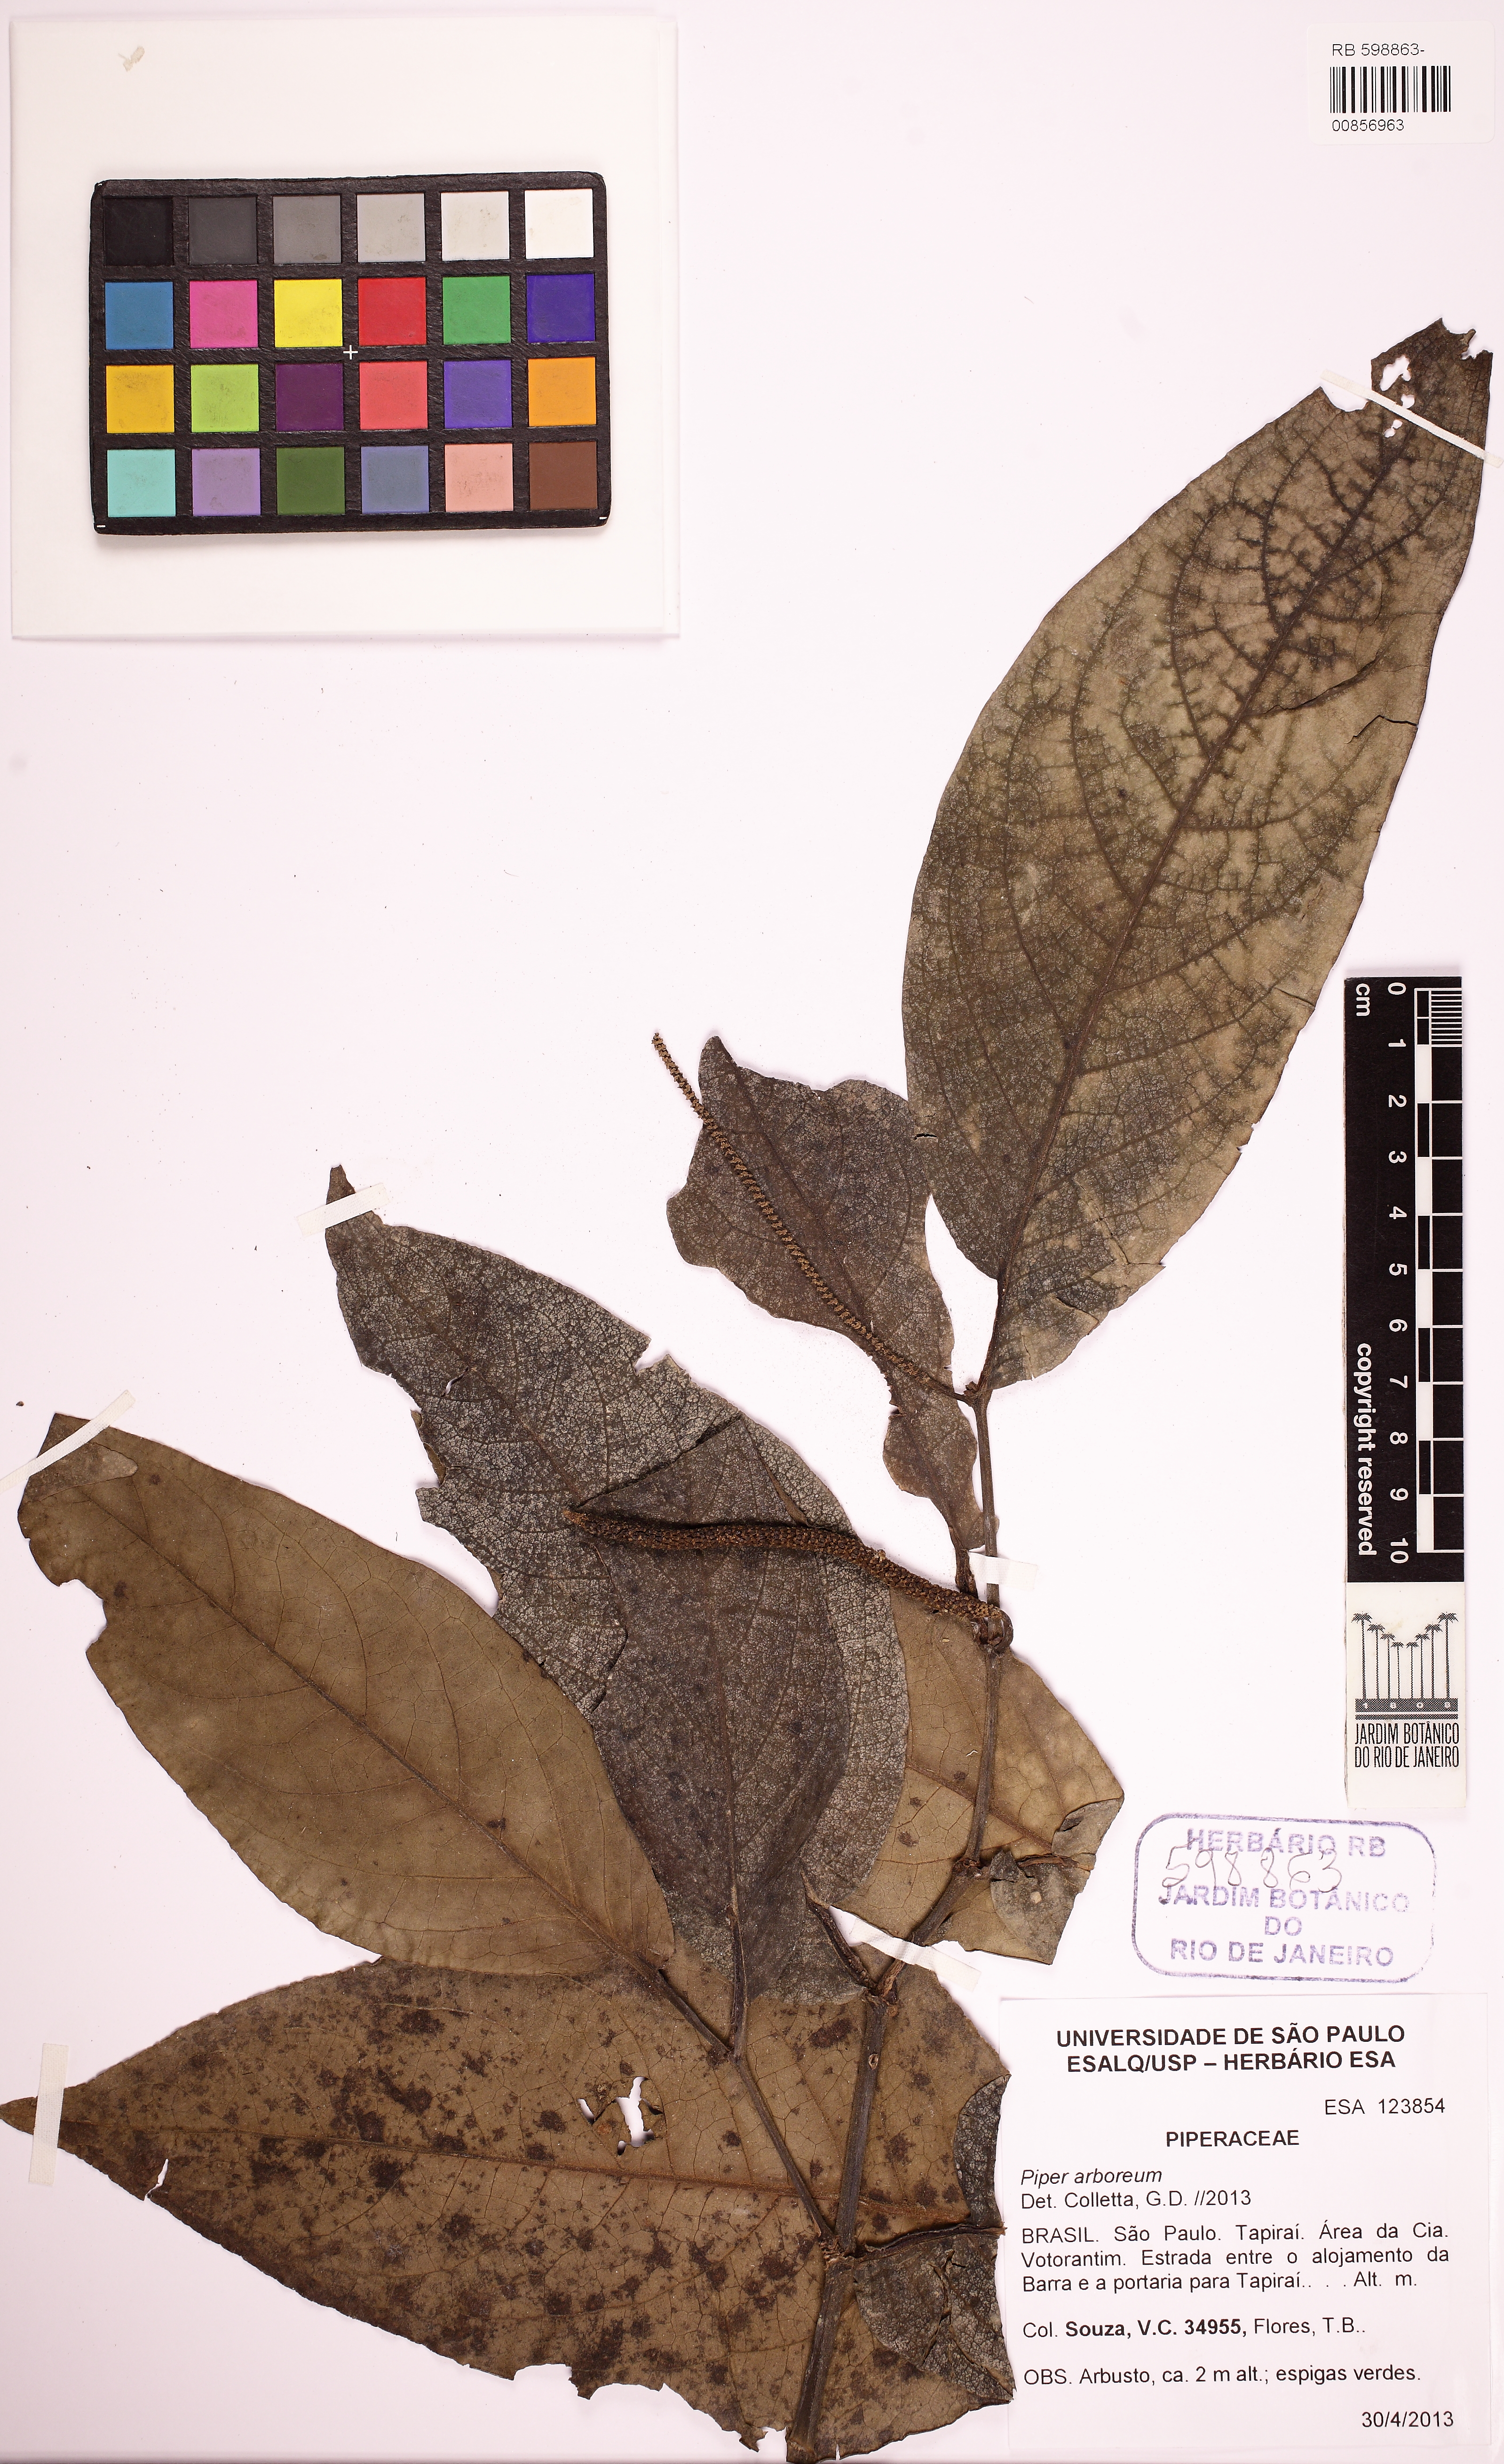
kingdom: Plantae
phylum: Tracheophyta
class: Magnoliopsida
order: Piperales
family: Piperaceae
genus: Piper
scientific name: Piper arboreum
